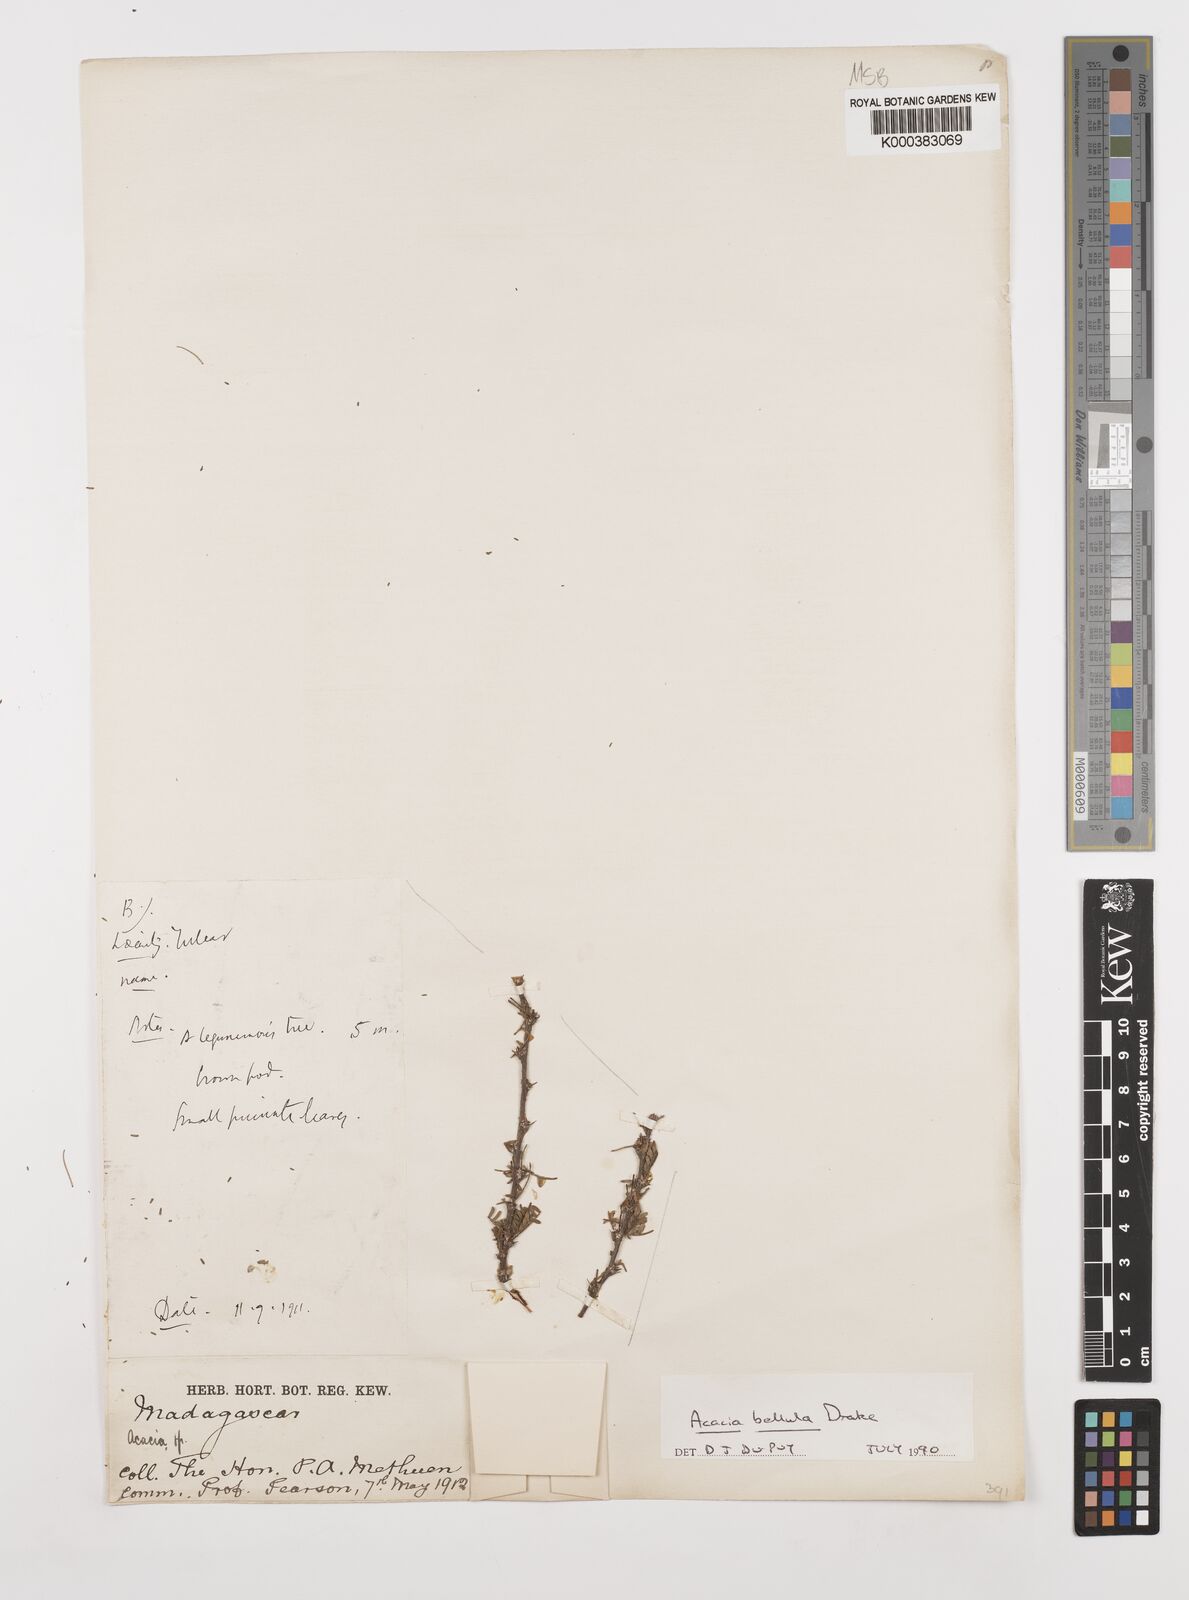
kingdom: Plantae
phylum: Tracheophyta
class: Magnoliopsida
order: Fabales
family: Fabaceae
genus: Vachellia
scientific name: Vachellia bellula
